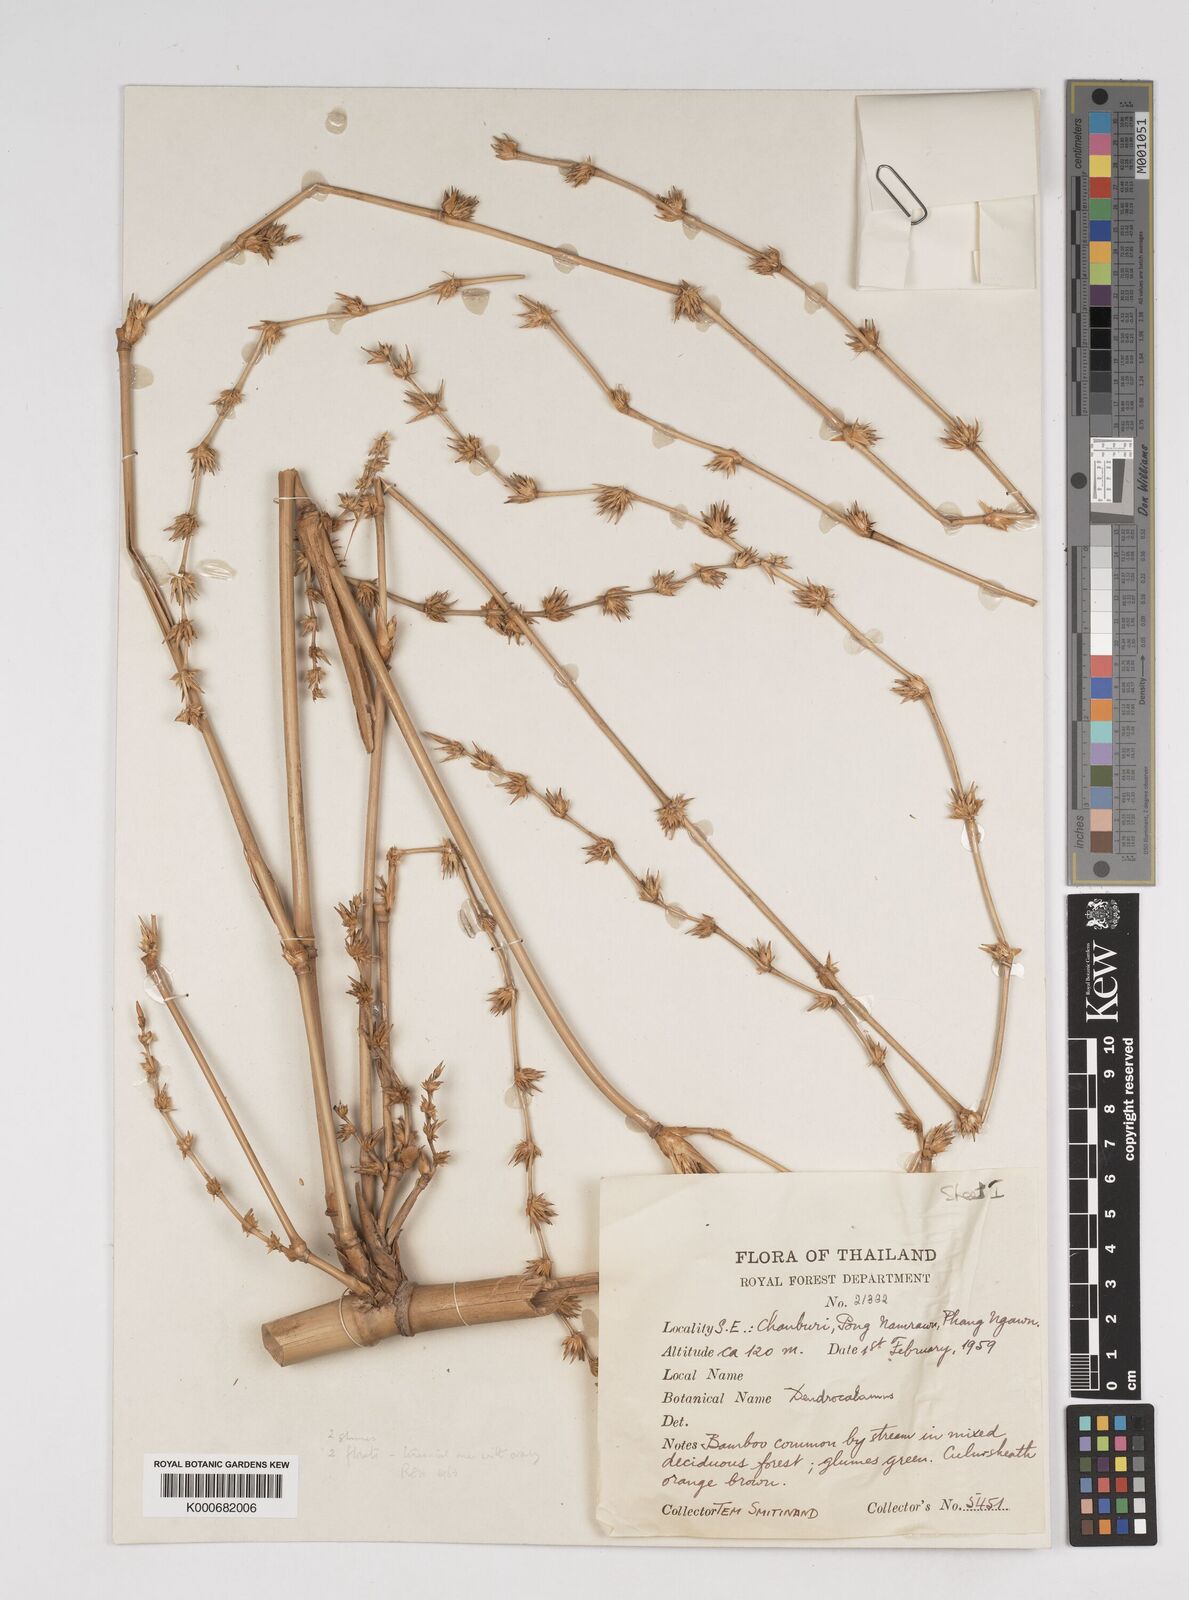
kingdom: Plantae
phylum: Tracheophyta
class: Liliopsida
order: Poales
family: Poaceae
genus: Dendrocalamus
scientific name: Dendrocalamus
